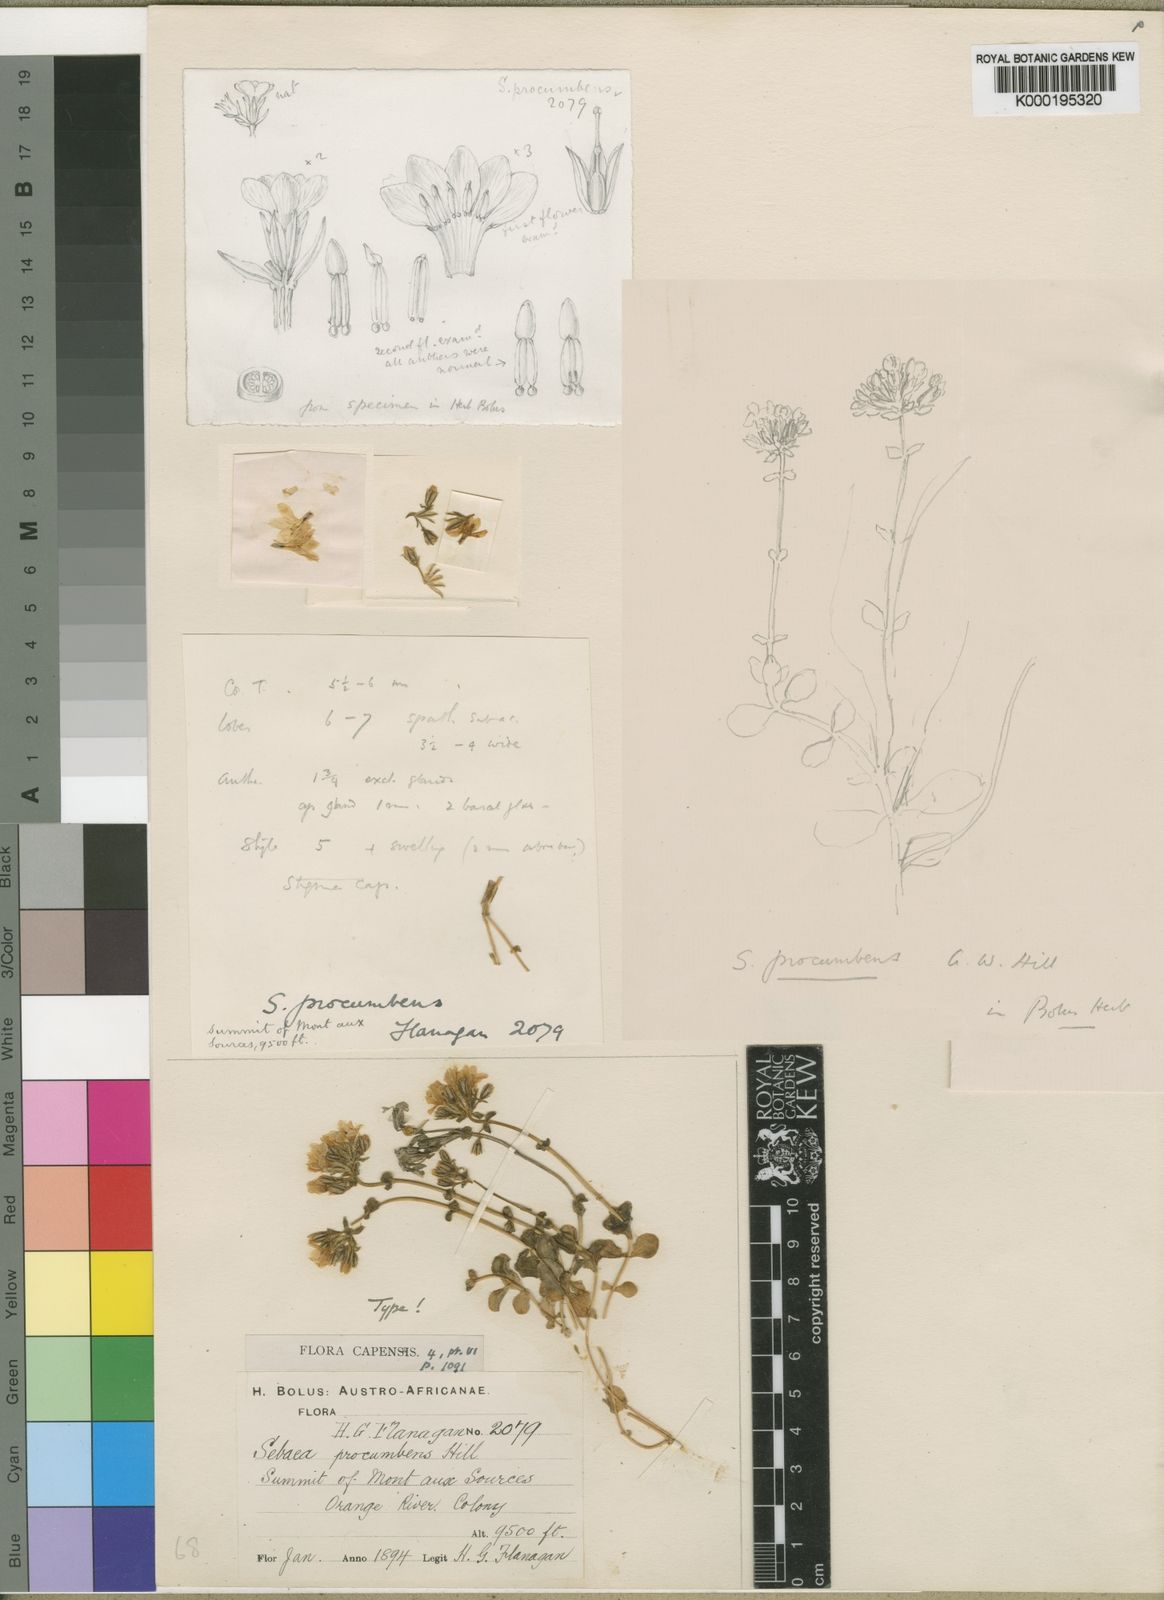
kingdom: Plantae
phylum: Tracheophyta
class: Magnoliopsida
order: Gentianales
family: Gentianaceae
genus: Sebaea
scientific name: Sebaea procumbens
